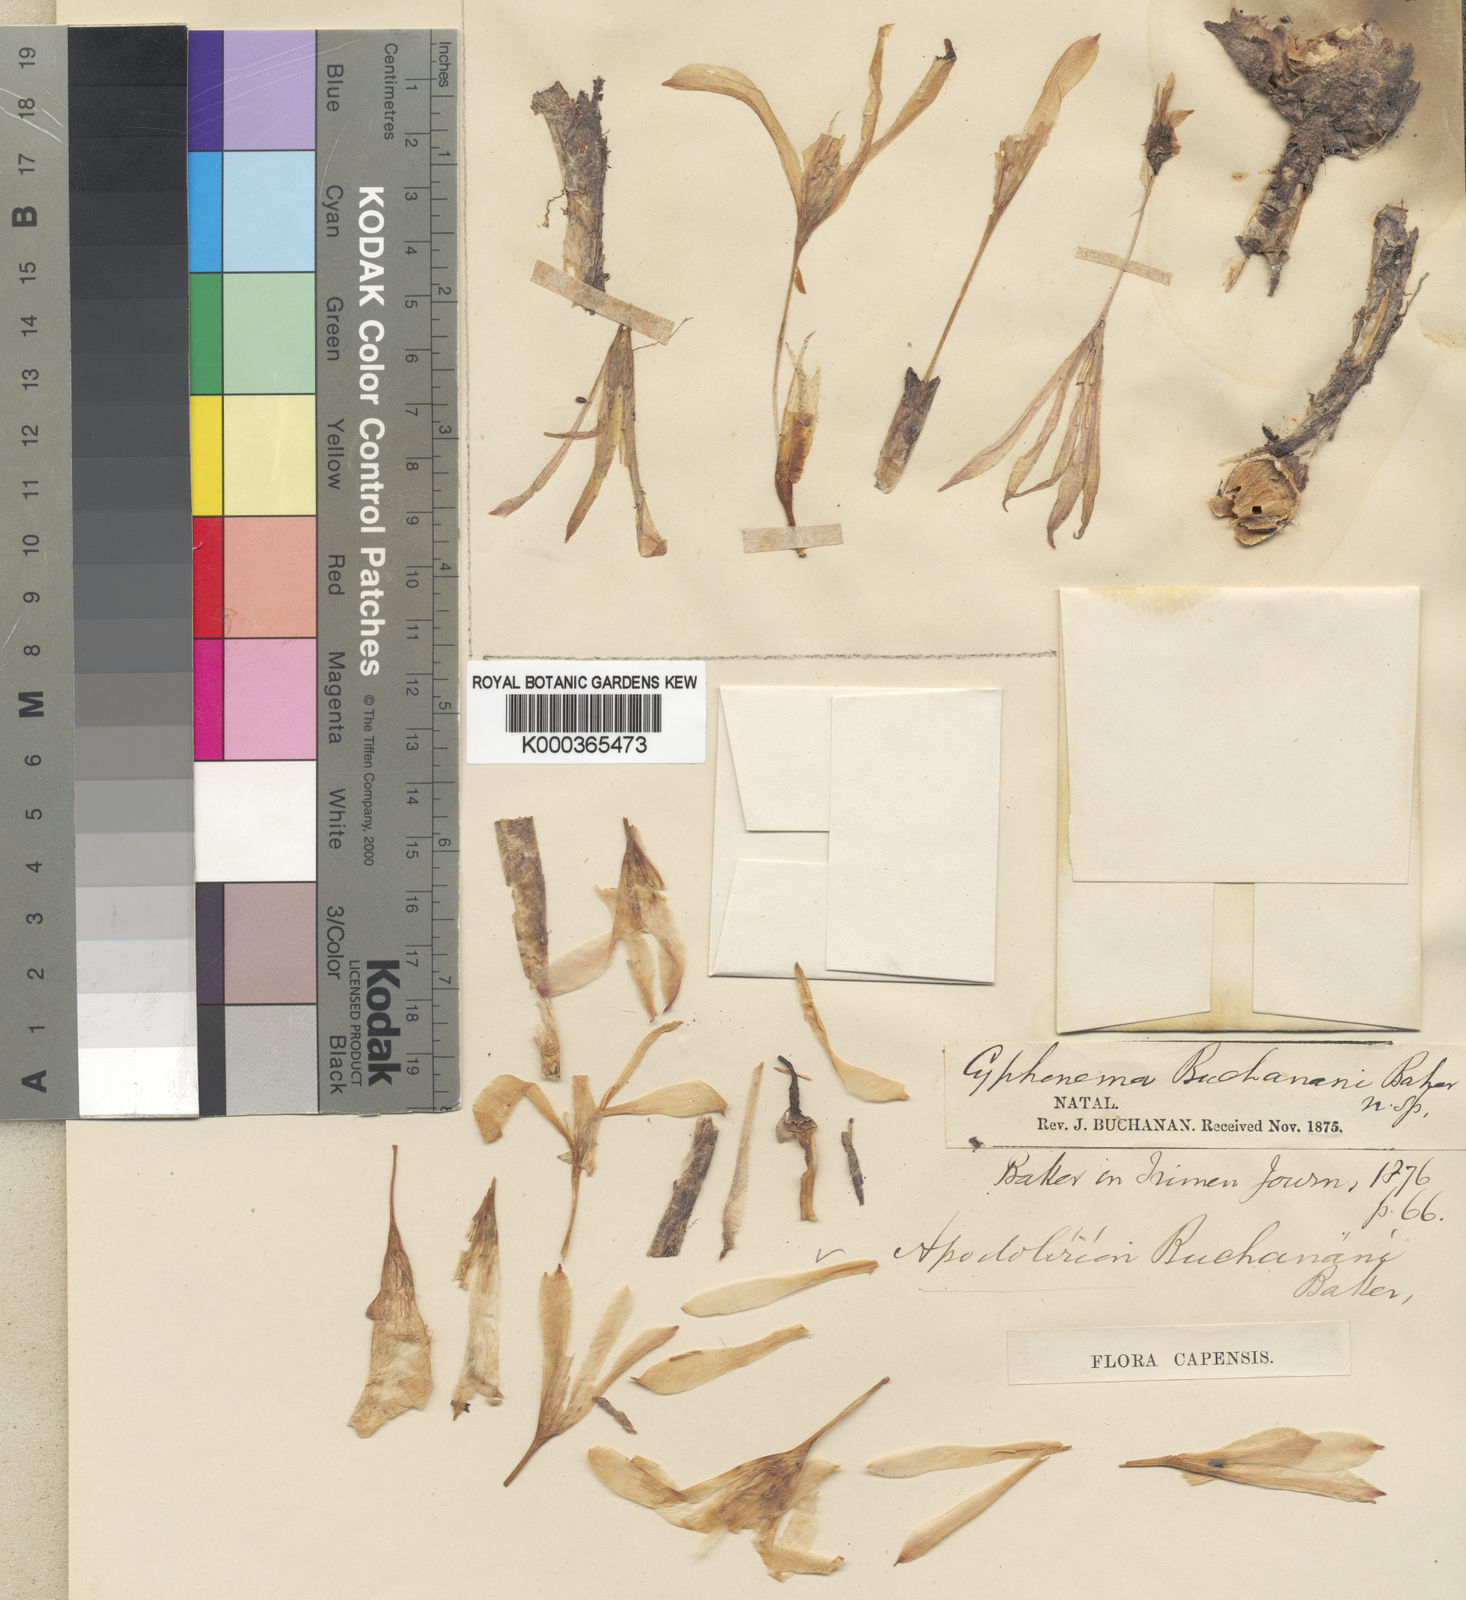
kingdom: Plantae
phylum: Tracheophyta
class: Liliopsida
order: Asparagales
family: Amaryllidaceae
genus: Apodolirion
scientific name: Apodolirion buchananii
